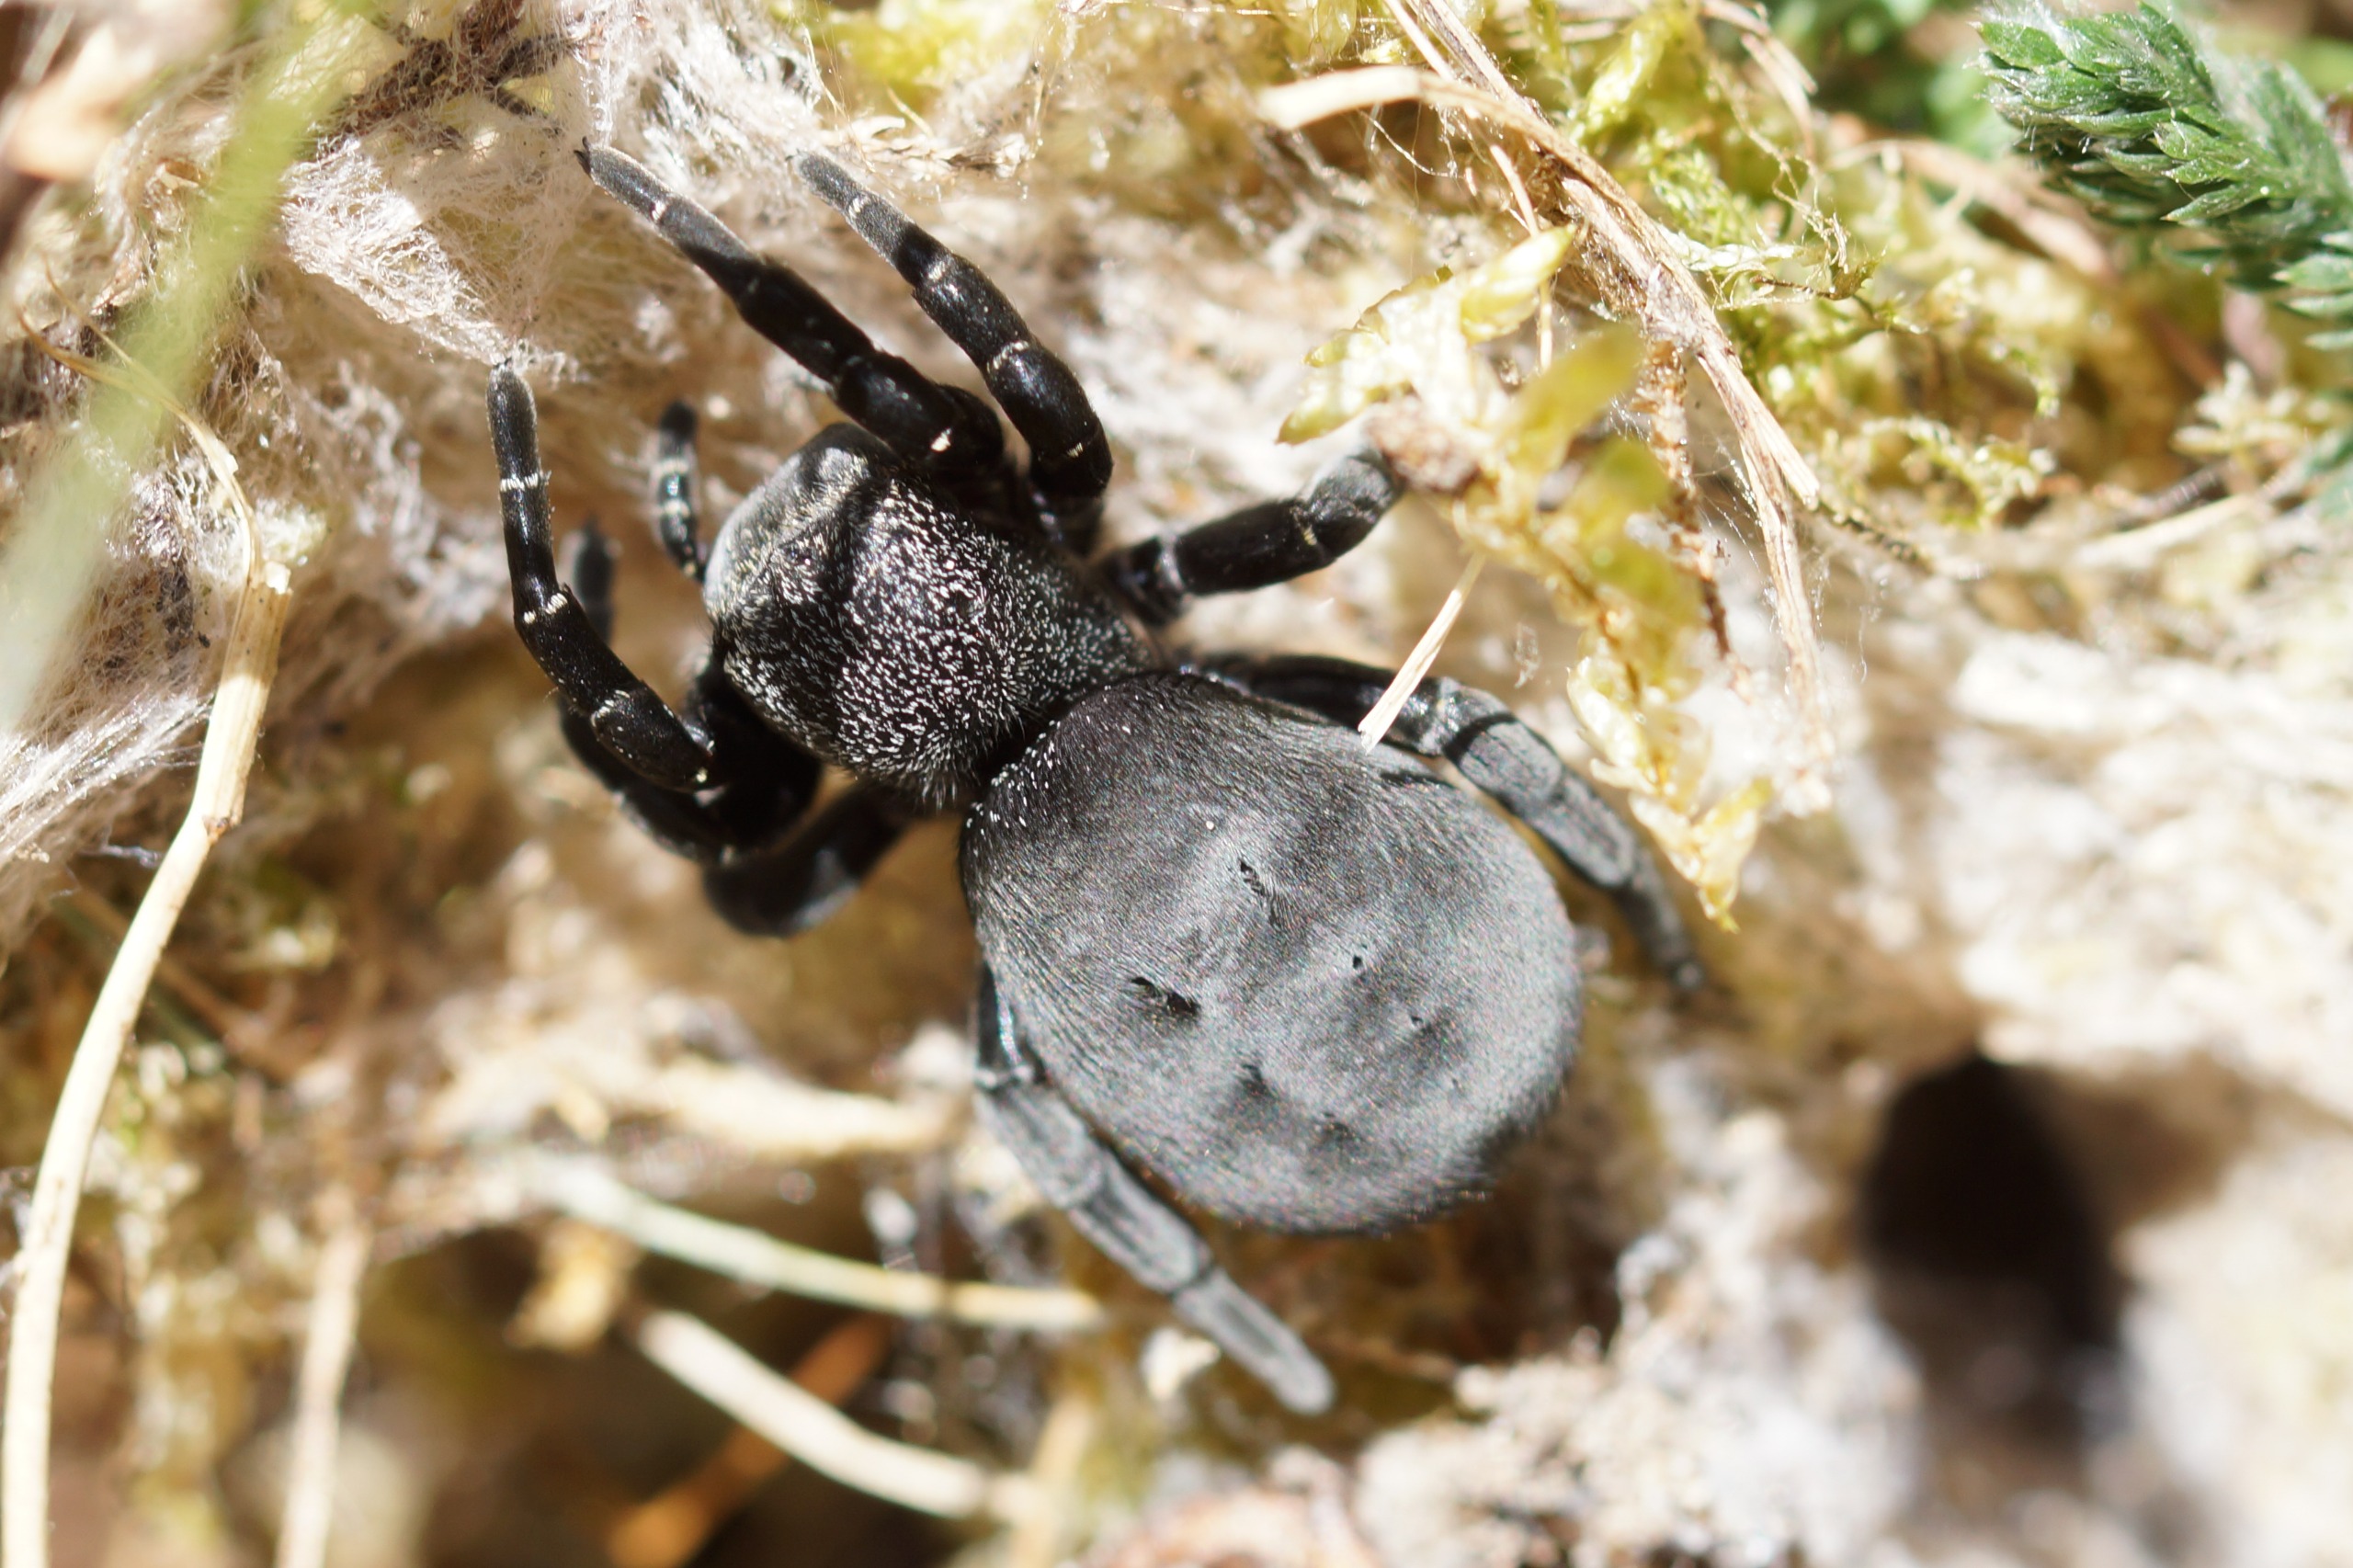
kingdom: Animalia
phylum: Arthropoda
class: Arachnida
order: Araneae
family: Eresidae
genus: Eresus
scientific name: Eresus sandaliatus
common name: Mariehøneedderkop
